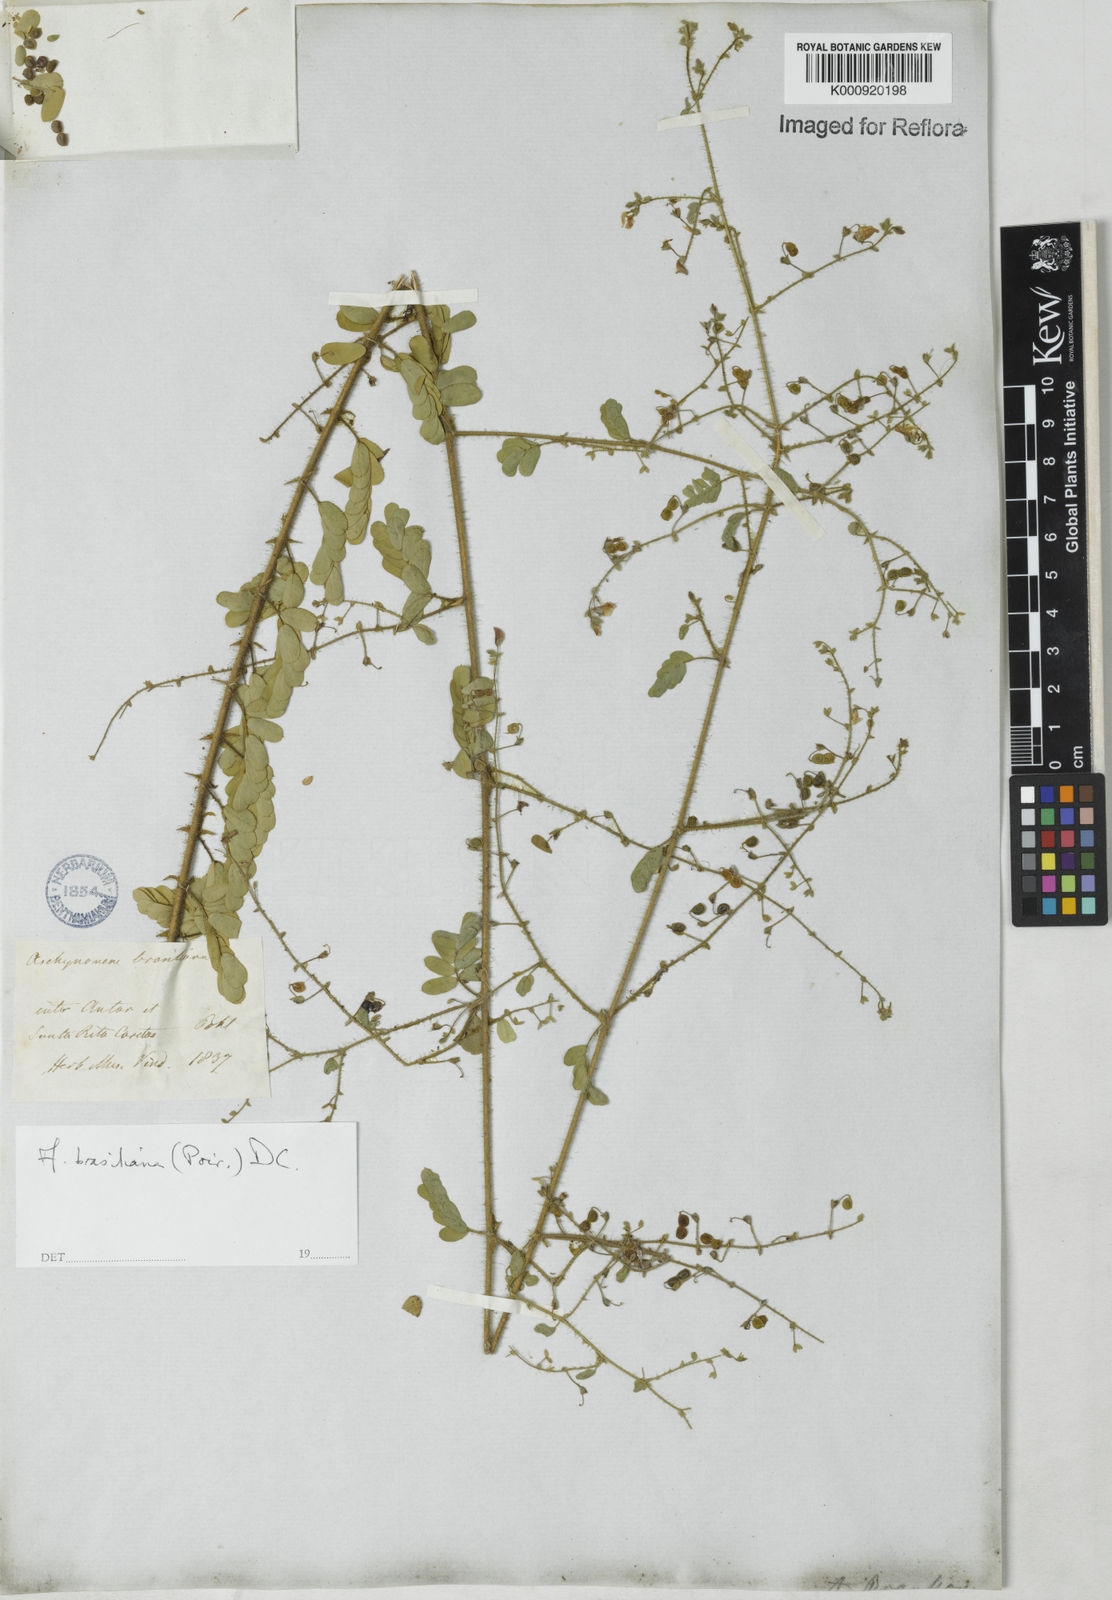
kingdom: Plantae
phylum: Tracheophyta
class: Magnoliopsida
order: Fabales
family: Fabaceae
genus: Ctenodon
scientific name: Ctenodon brasilianus
